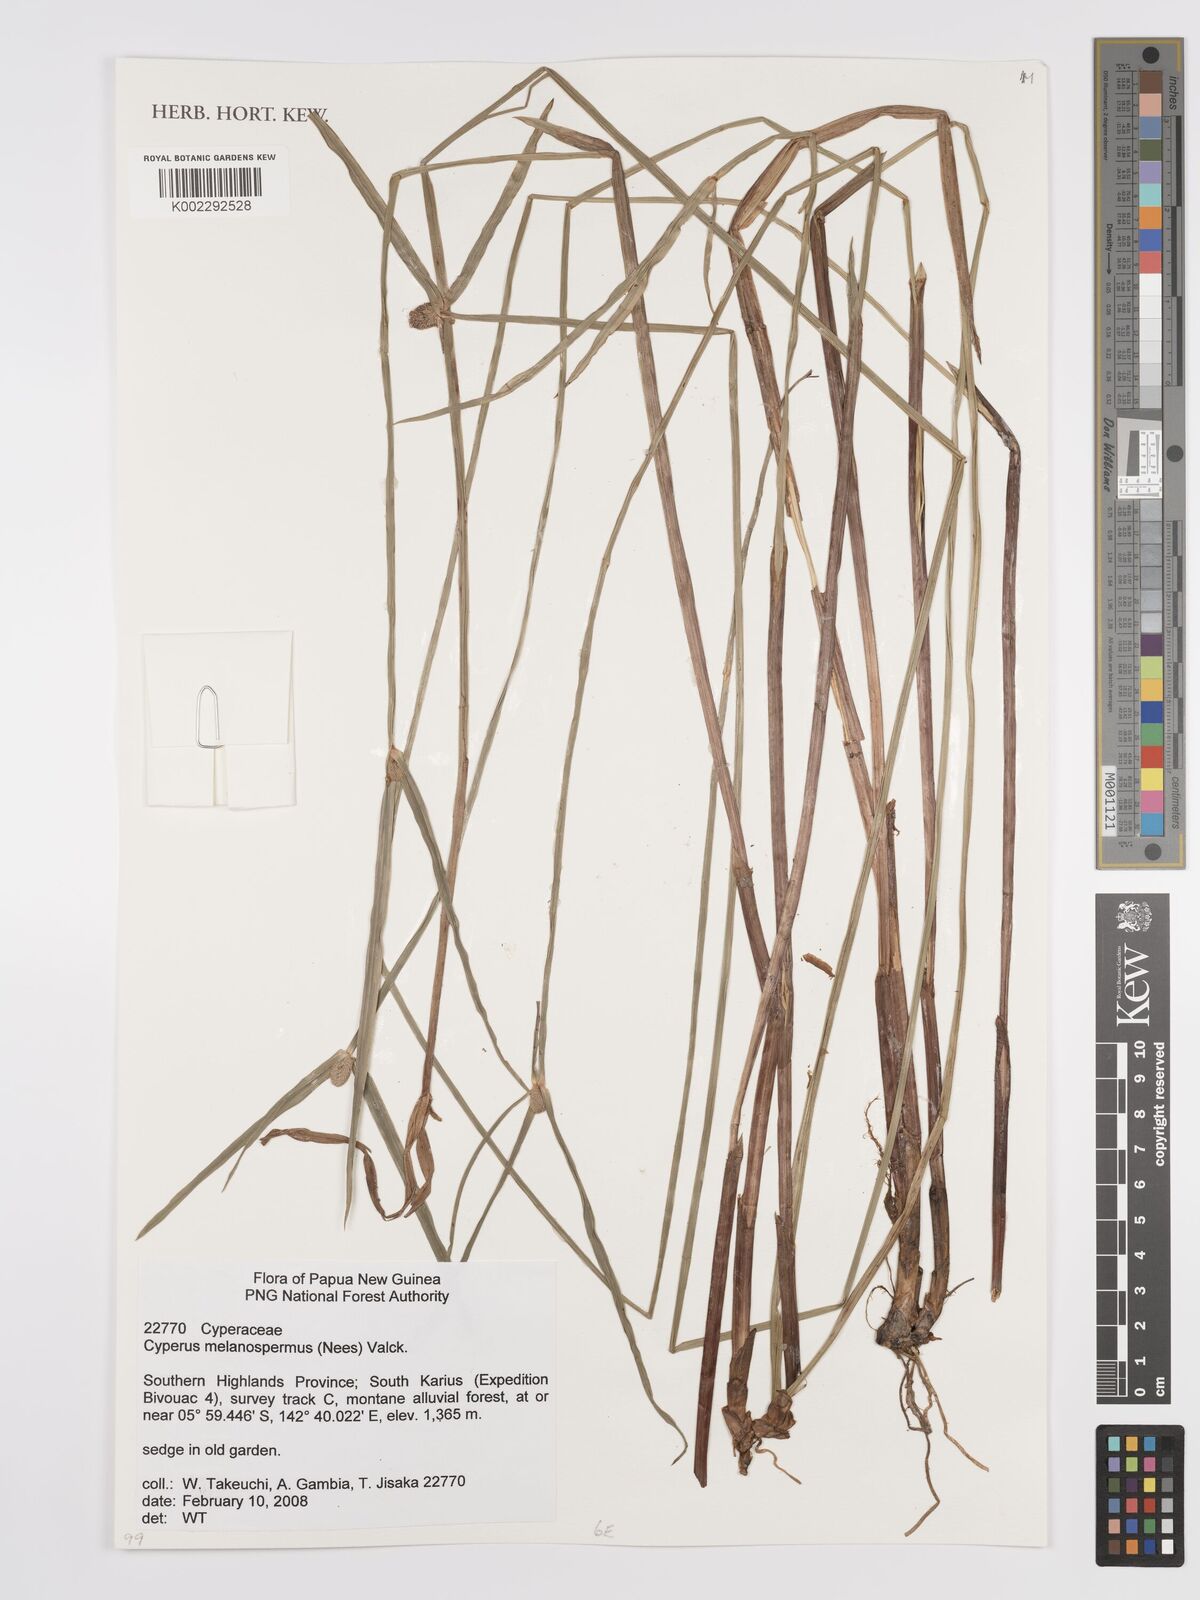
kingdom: Plantae
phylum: Tracheophyta
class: Liliopsida
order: Poales
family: Cyperaceae
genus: Cyperus
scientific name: Cyperus melanospermus
